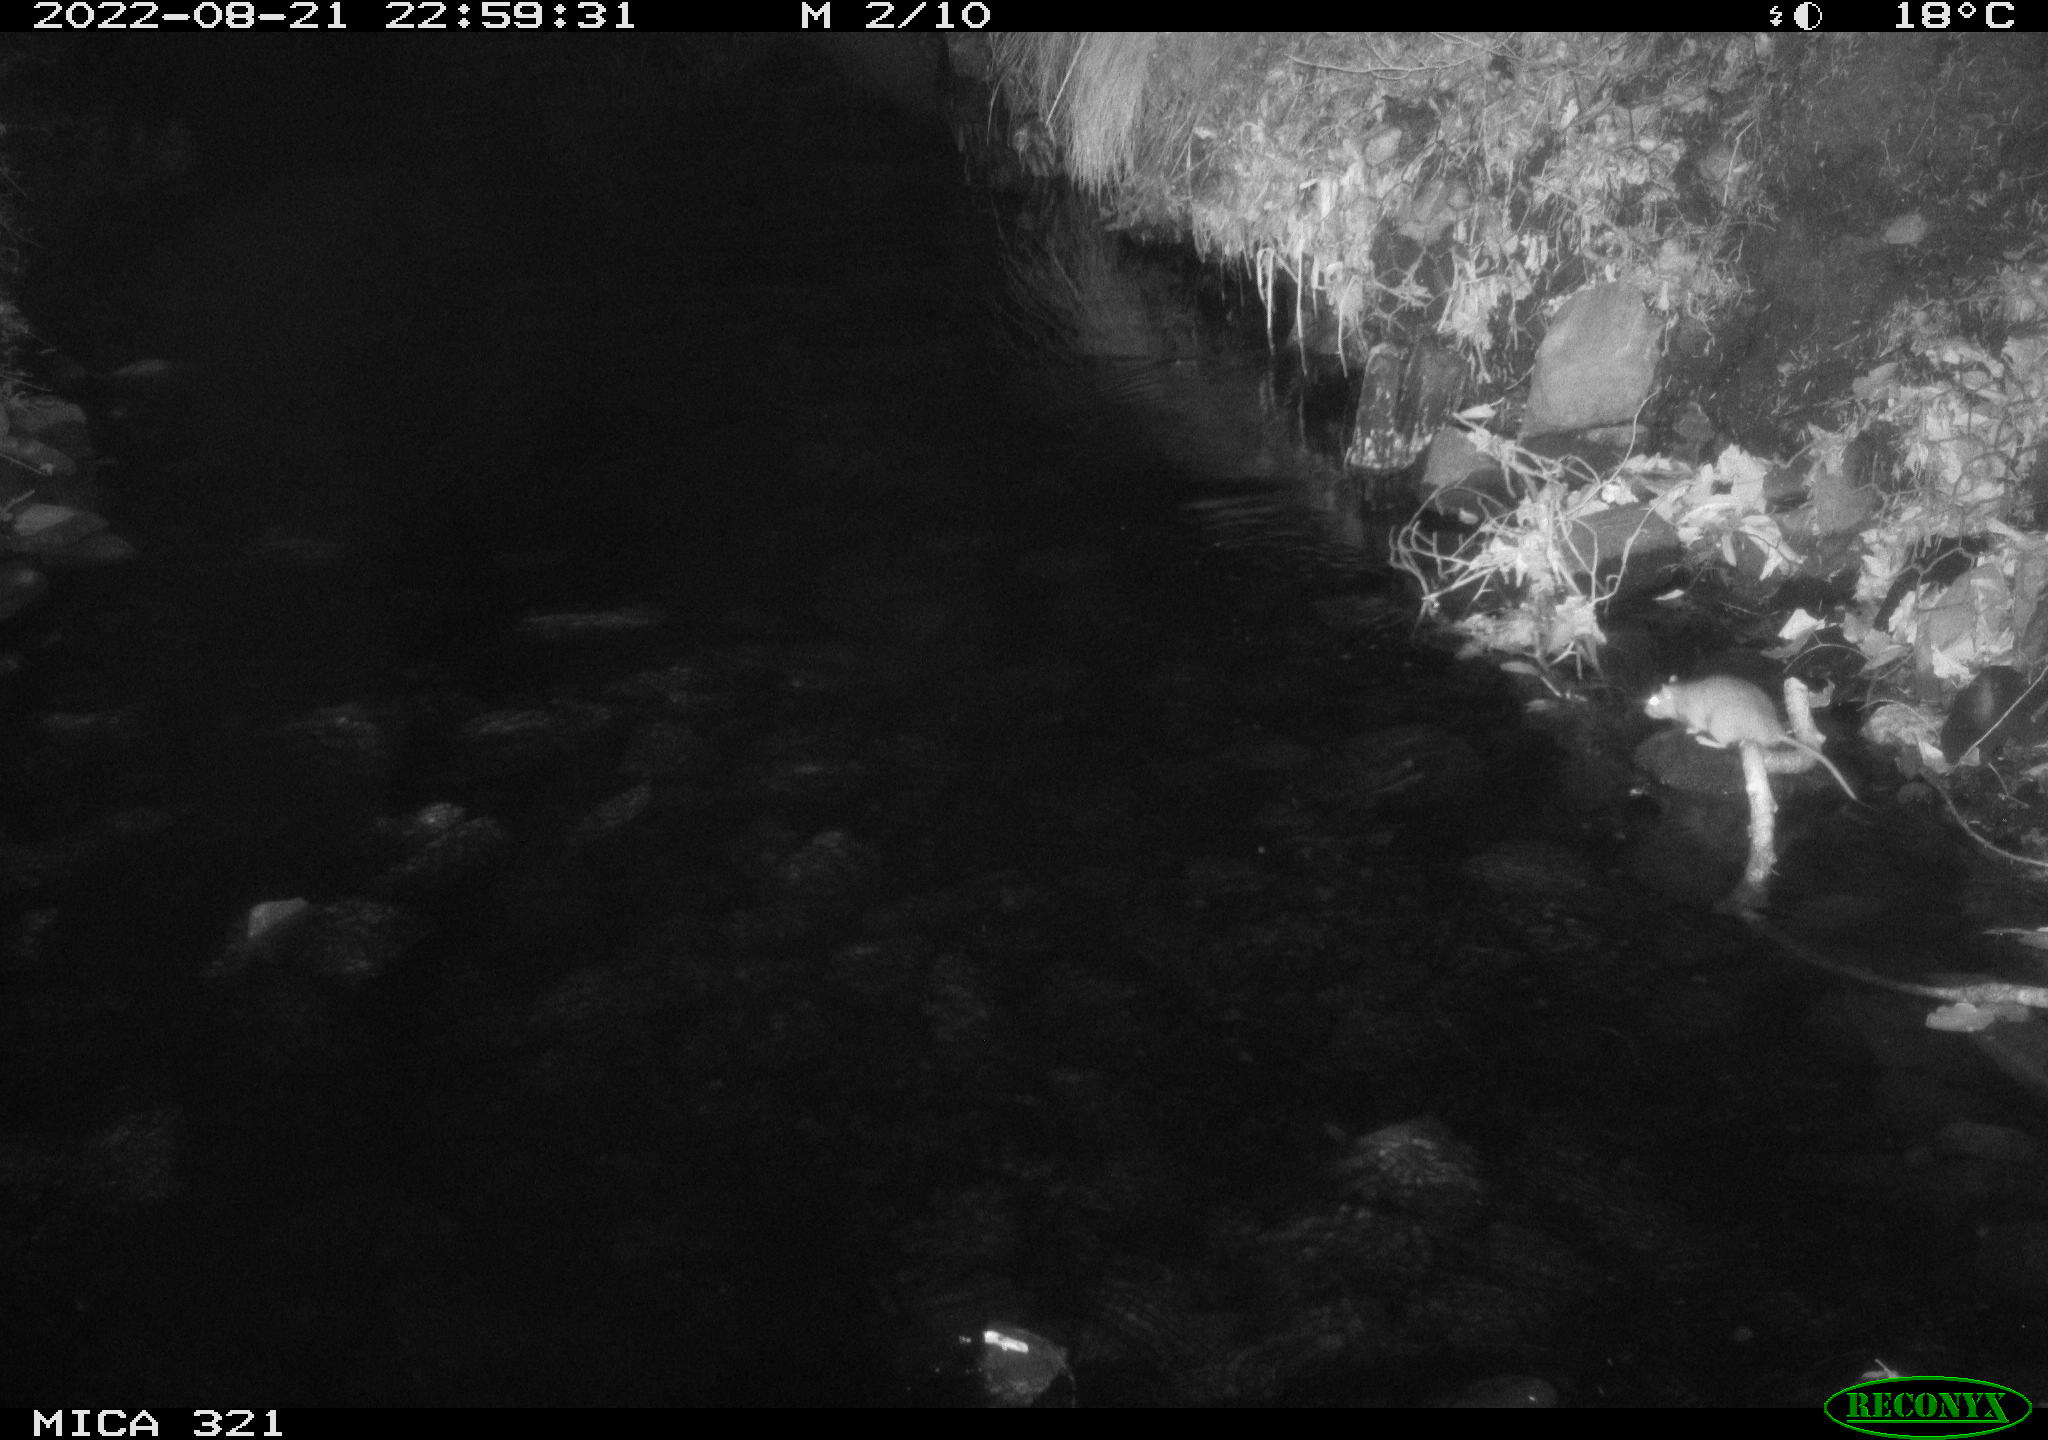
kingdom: Animalia
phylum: Chordata
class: Mammalia
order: Rodentia
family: Muridae
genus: Rattus
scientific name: Rattus norvegicus
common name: Brown rat
